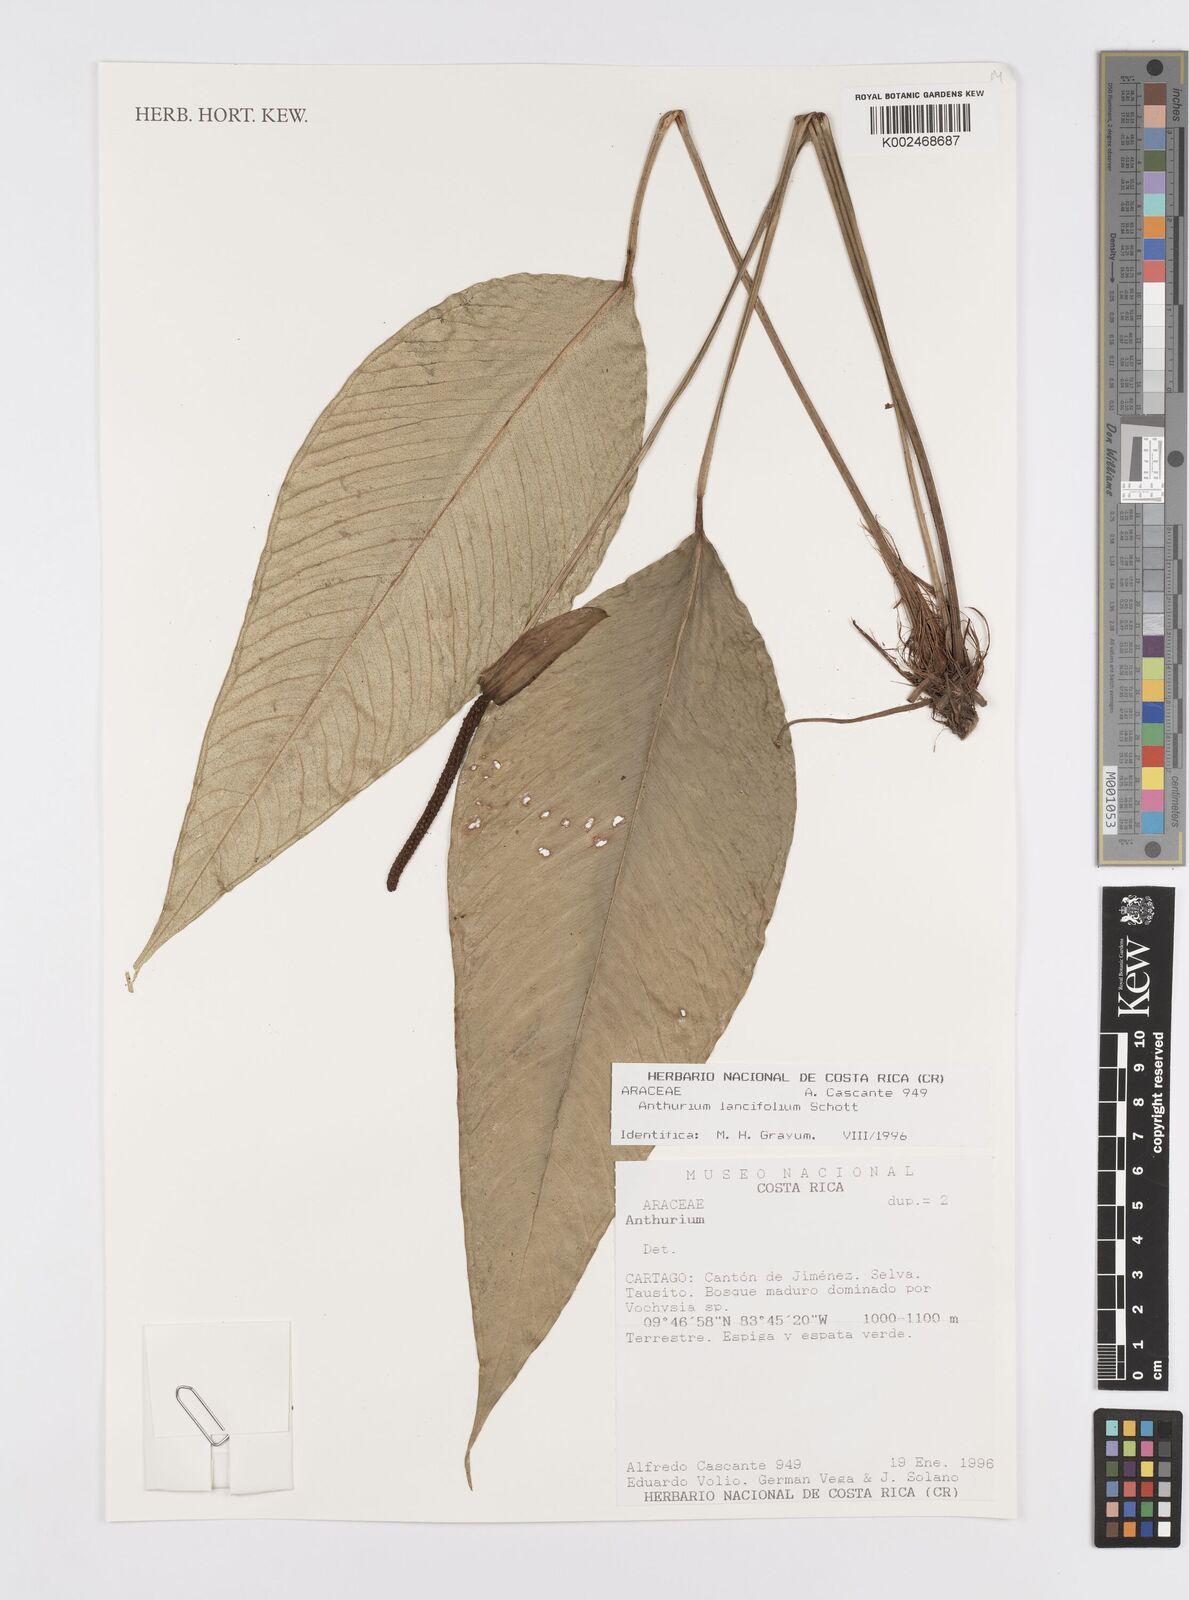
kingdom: Plantae
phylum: Tracheophyta
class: Liliopsida
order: Alismatales
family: Araceae
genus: Anthurium
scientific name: Anthurium lancifolium
